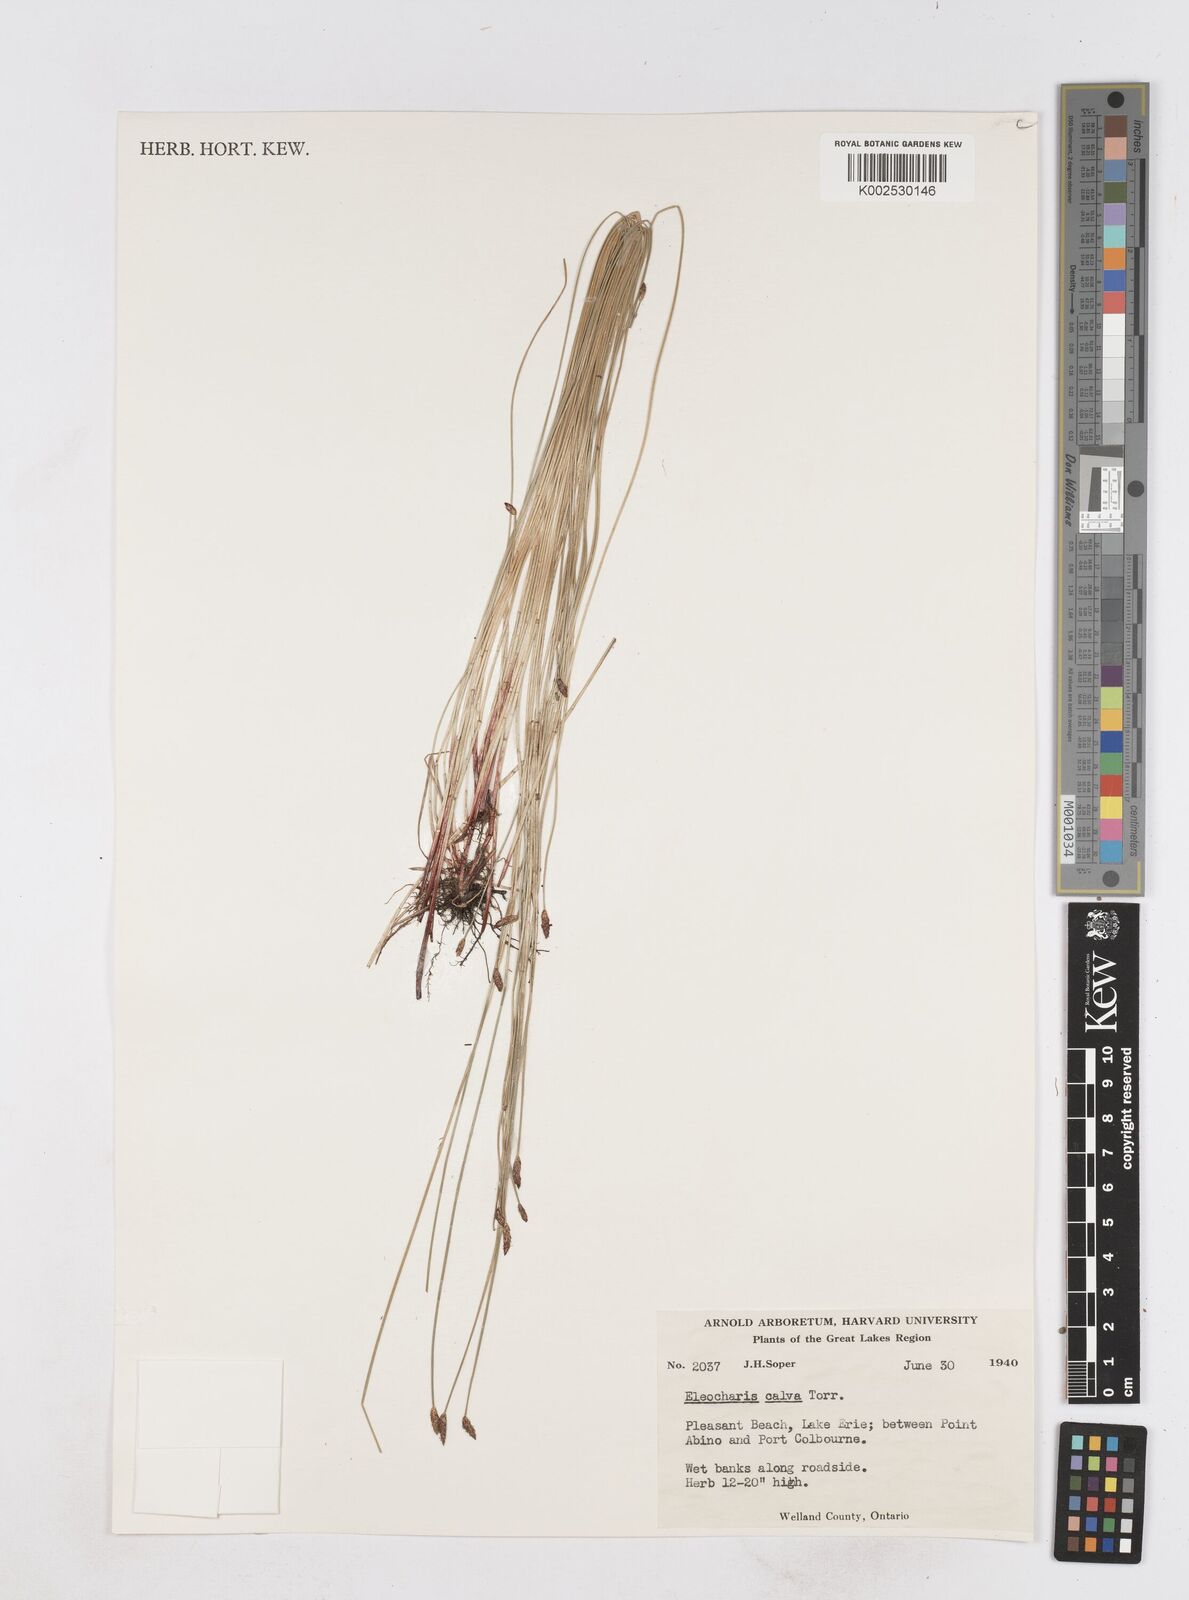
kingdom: Plantae
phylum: Tracheophyta
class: Liliopsida
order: Poales
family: Cyperaceae
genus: Eleocharis
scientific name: Eleocharis erythropoda
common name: Bald spikerush
